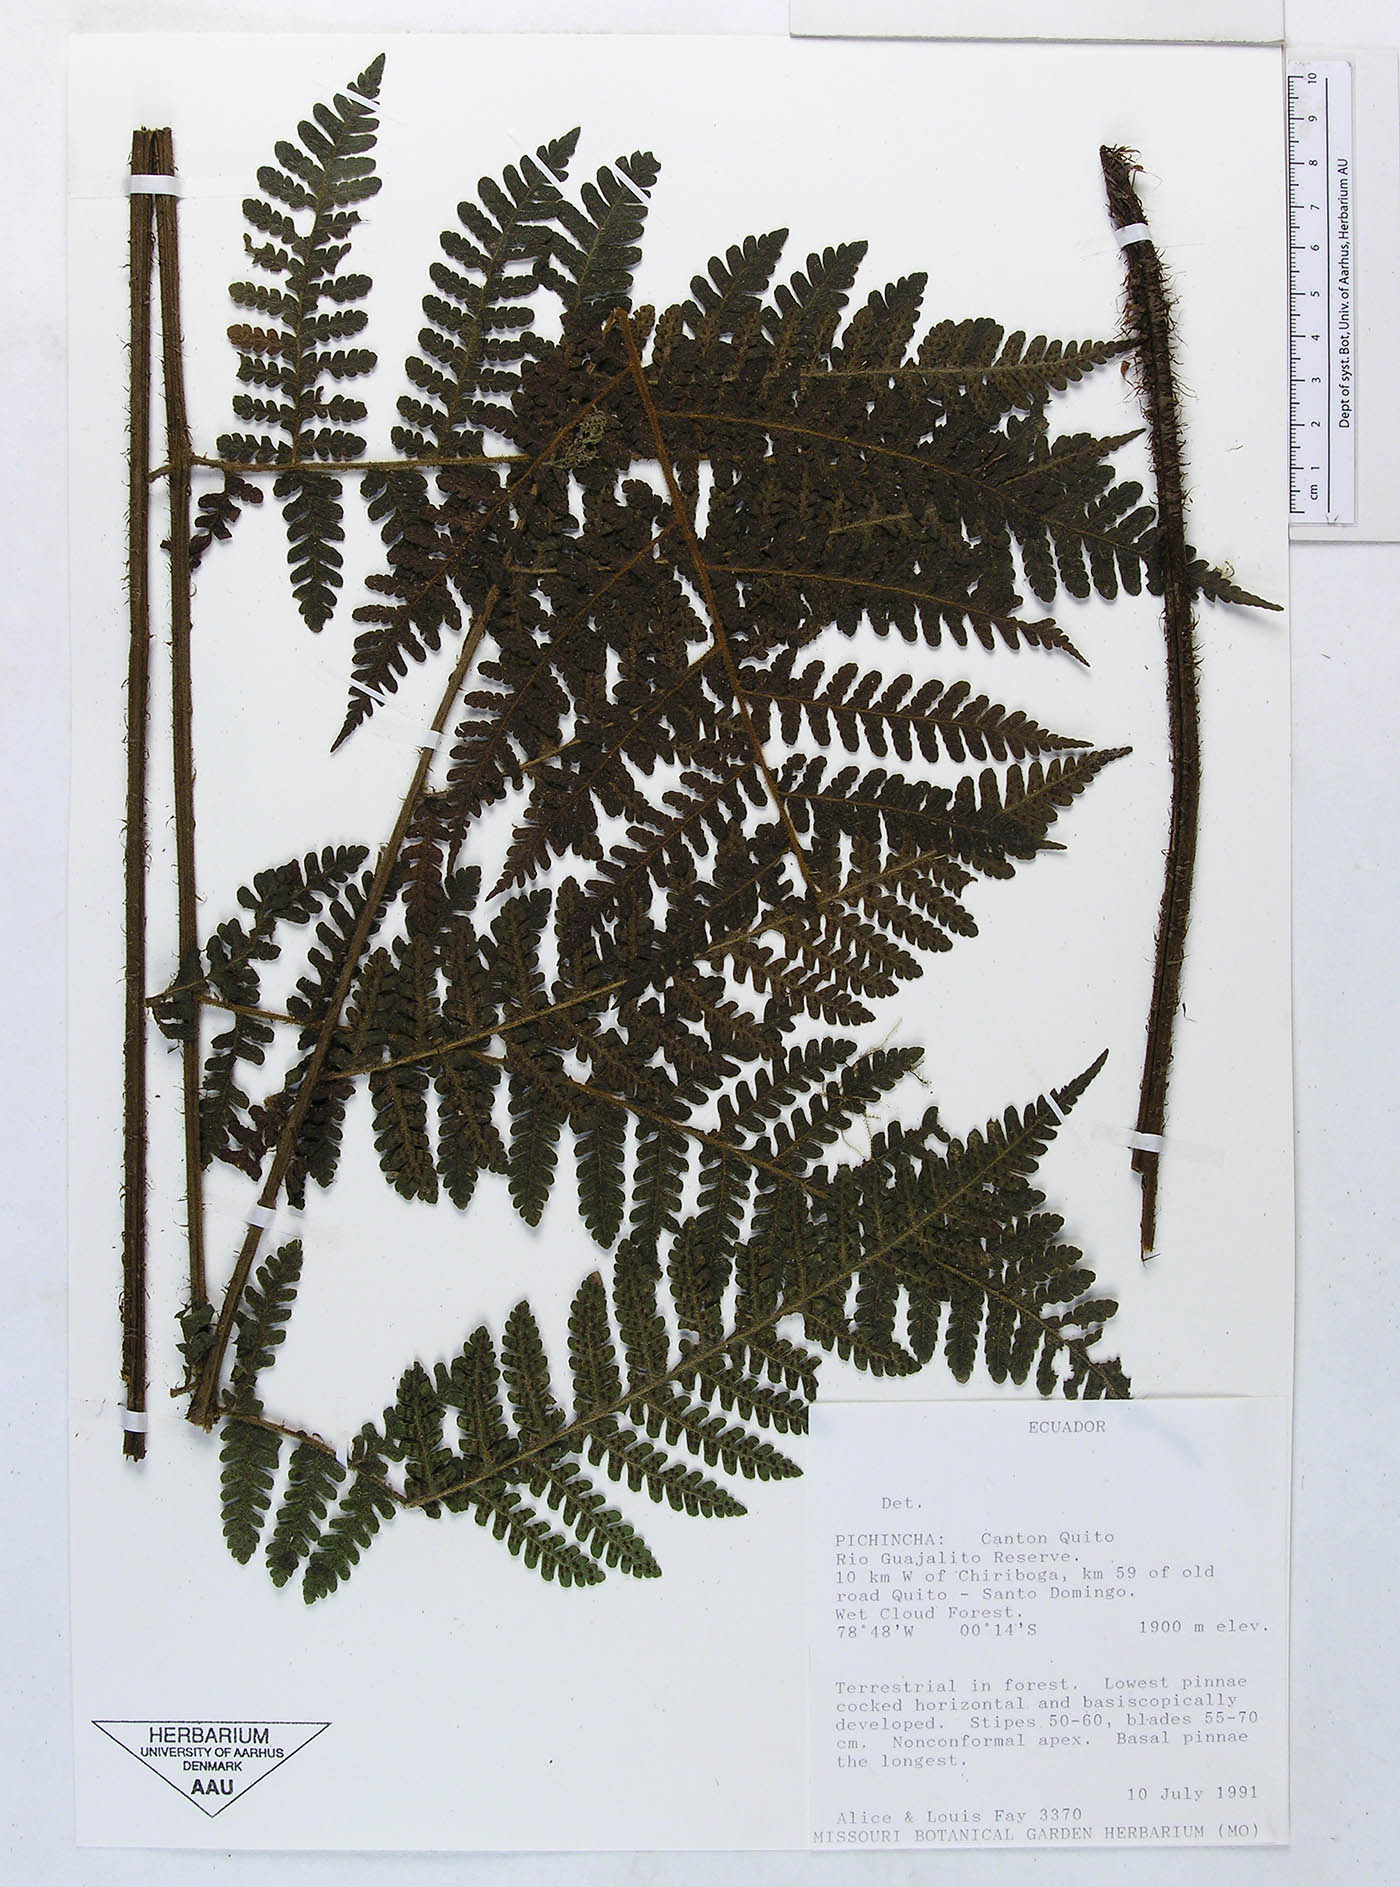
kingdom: Plantae
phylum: Tracheophyta
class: Polypodiopsida
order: Polypodiales
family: Dryopteridaceae
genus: Megalastrum
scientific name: Megalastrum insigne
